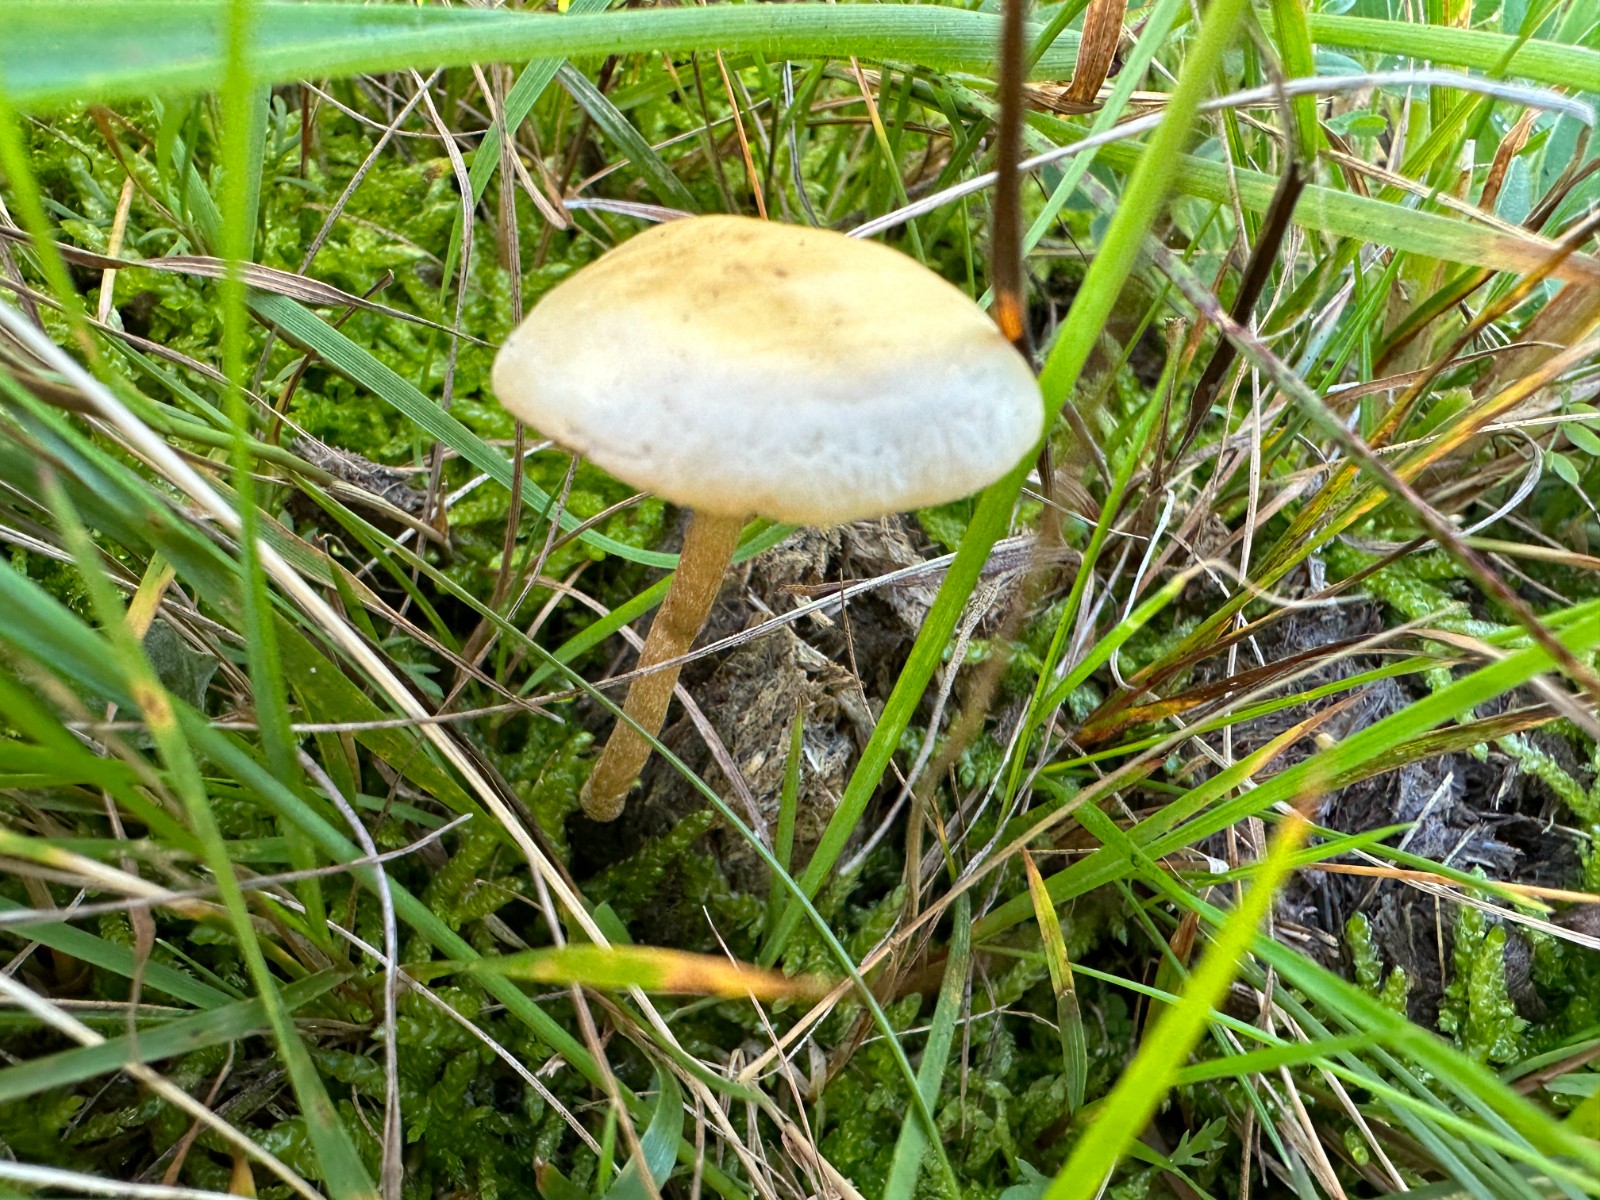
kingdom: Fungi
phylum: Basidiomycota
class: Agaricomycetes
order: Agaricales
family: Strophariaceae
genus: Protostropharia
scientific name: Protostropharia semiglobata
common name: halvkugleformet bredblad
